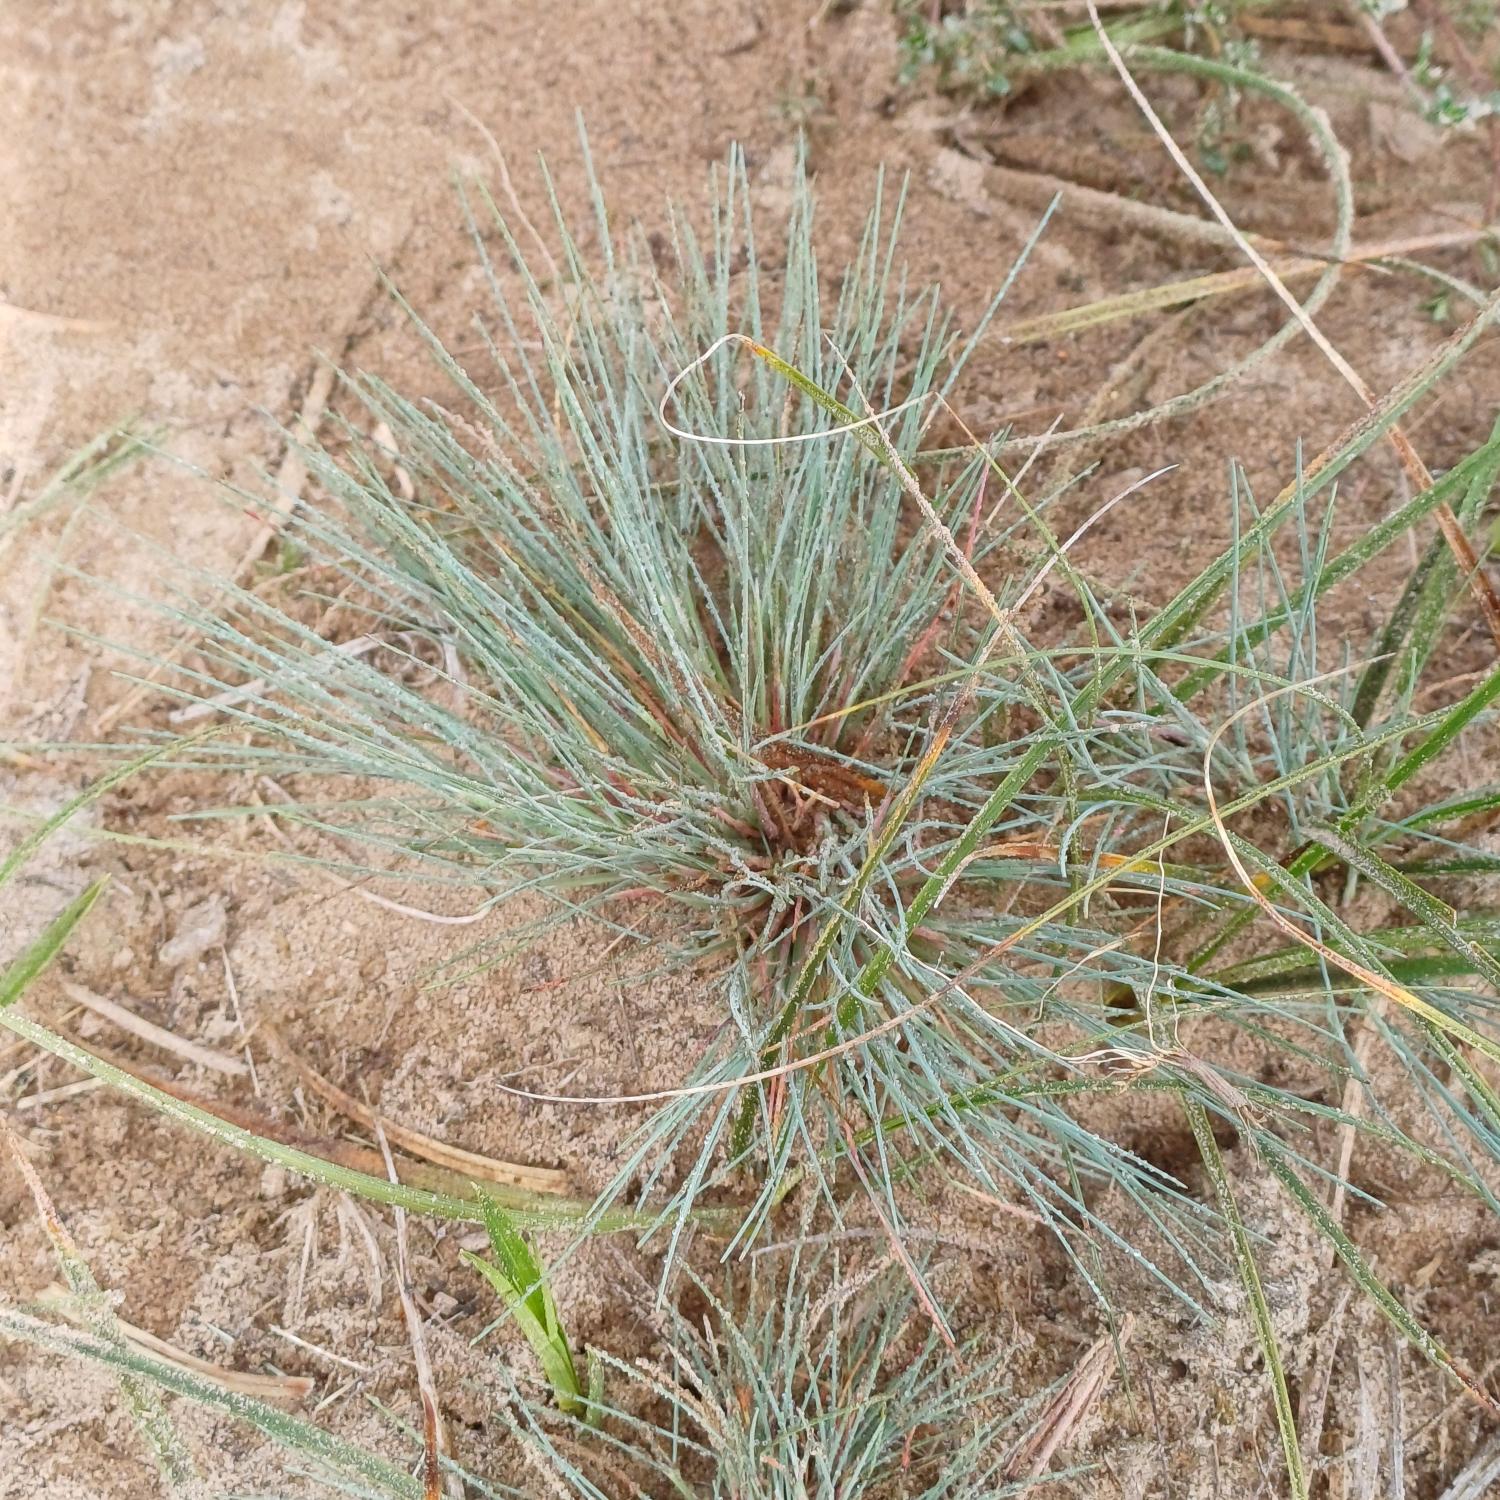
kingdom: Plantae
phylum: Tracheophyta
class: Liliopsida
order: Poales
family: Poaceae
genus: Corynephorus
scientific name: Corynephorus canescens
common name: Sandskæg
